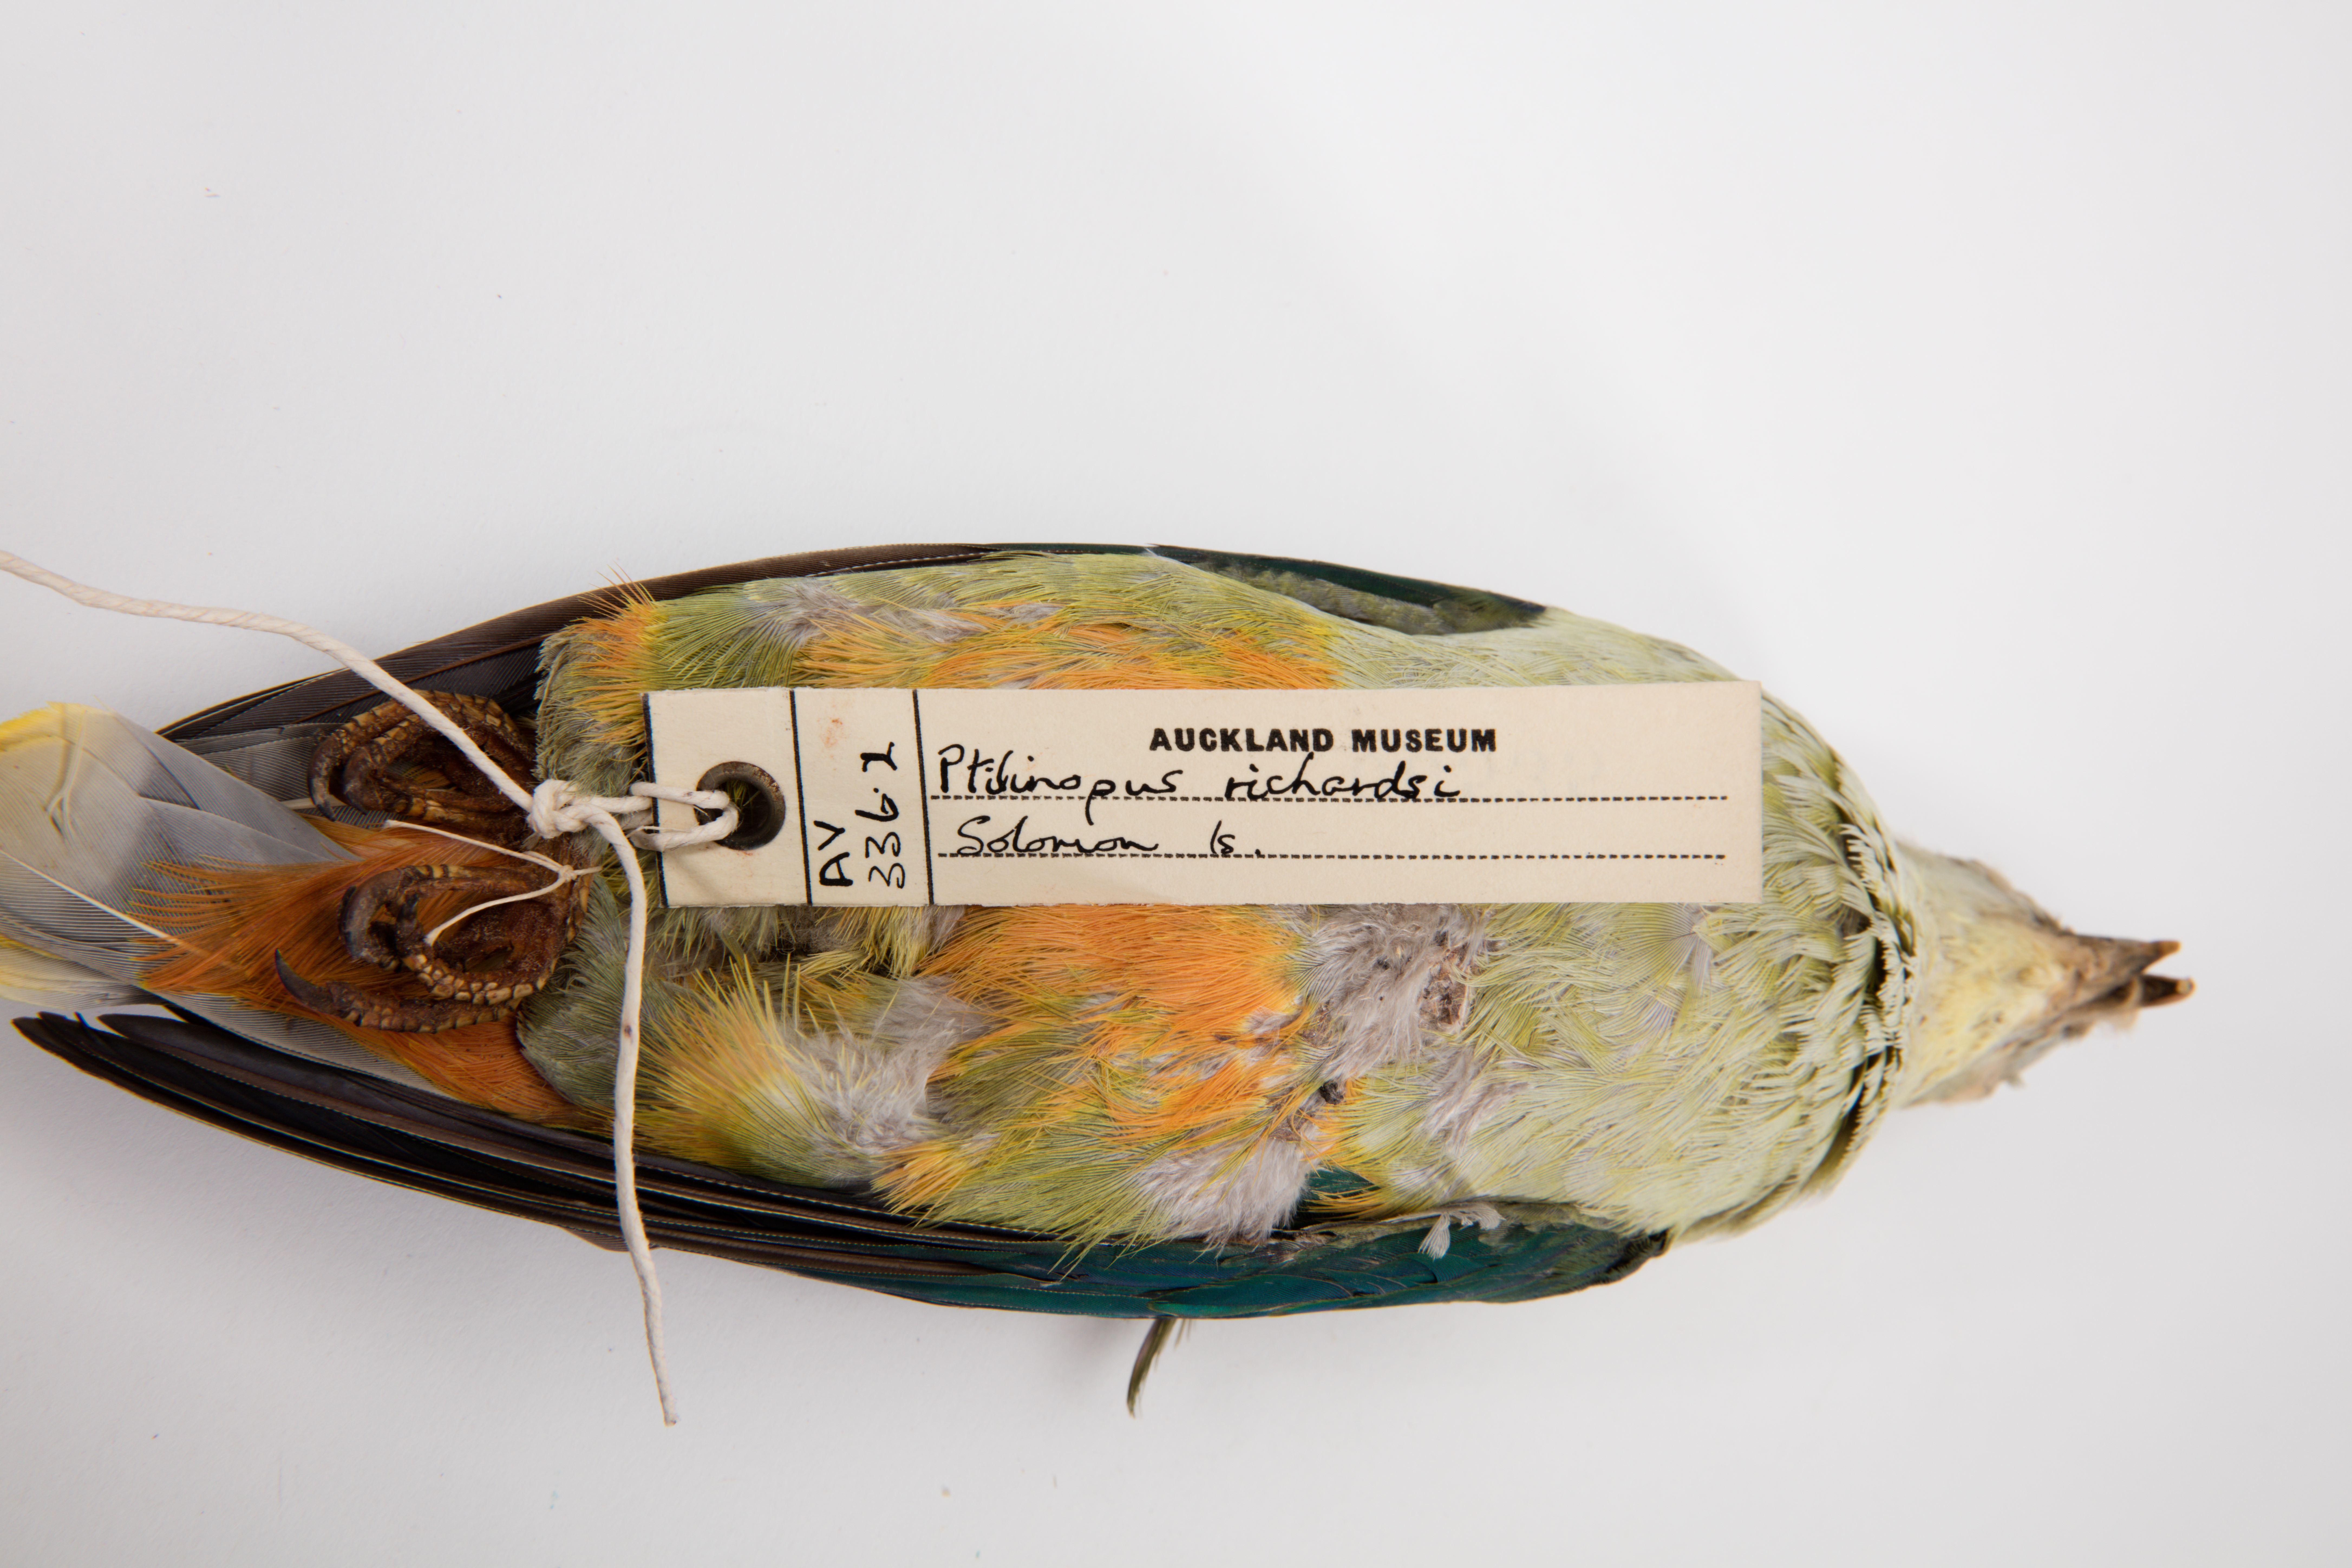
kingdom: Animalia
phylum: Chordata
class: Aves
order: Columbiformes
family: Columbidae
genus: Ptilinopus
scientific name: Ptilinopus richardsii
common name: Silver-capped fruit dove
